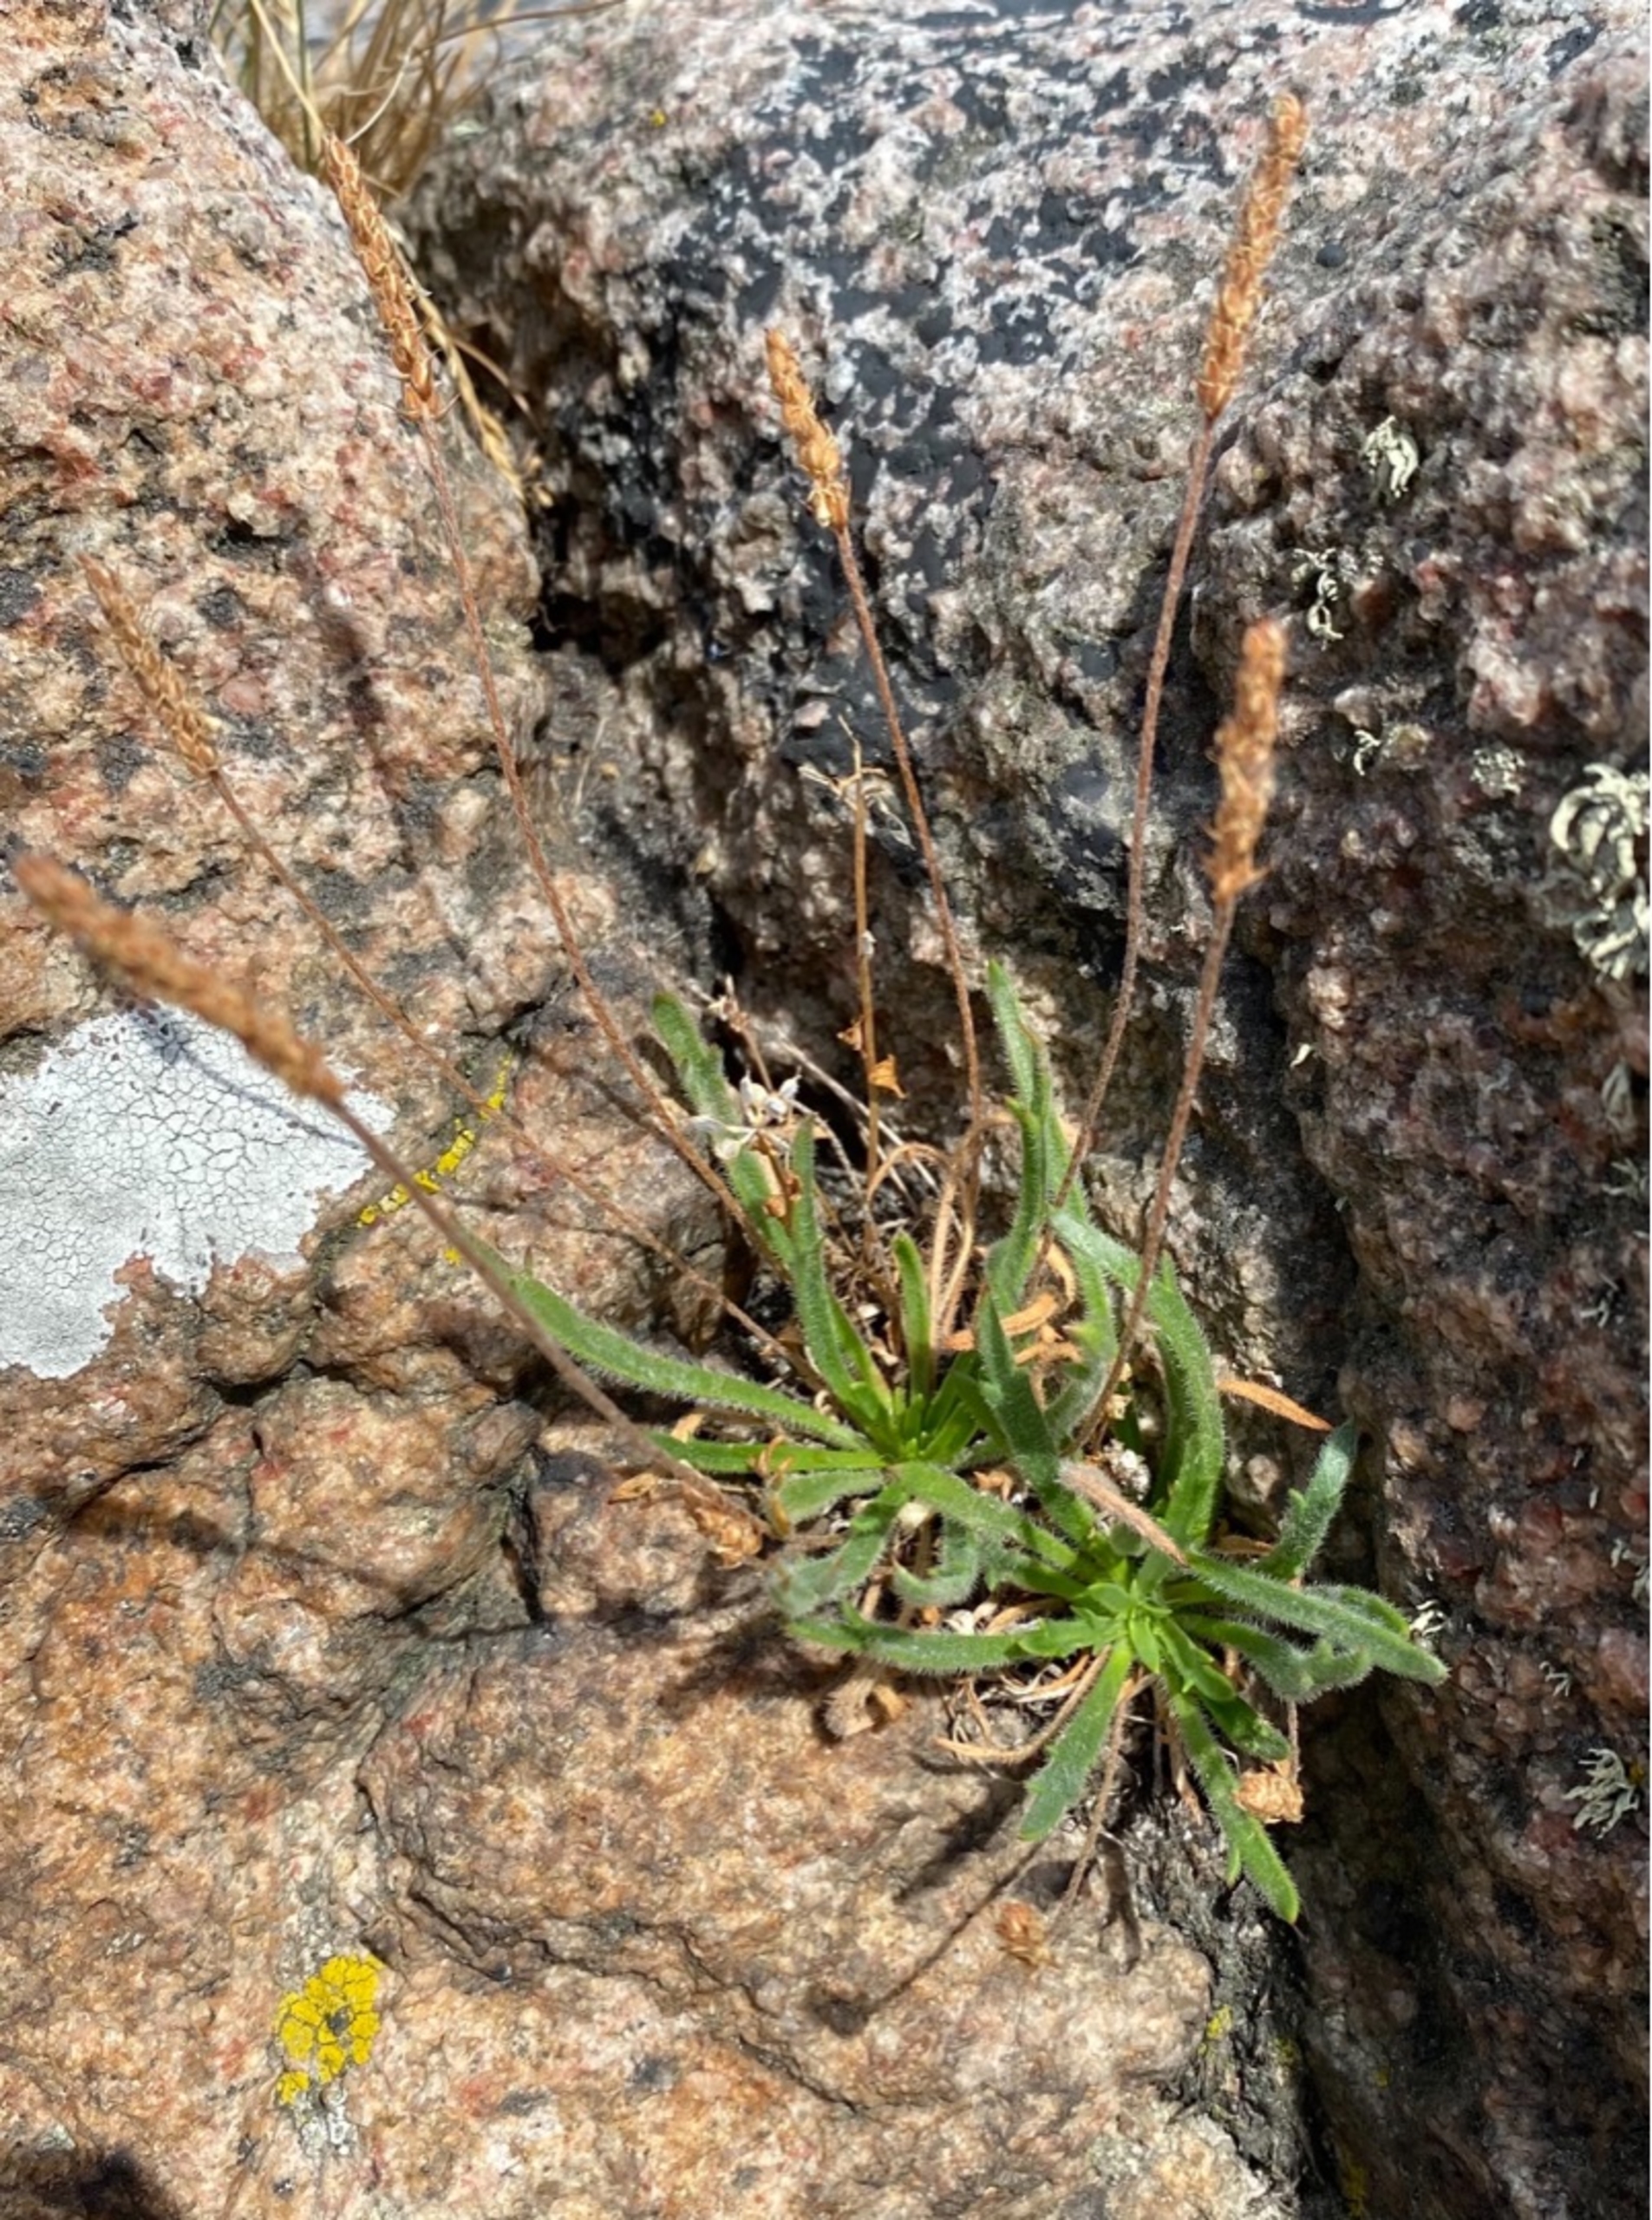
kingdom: Plantae
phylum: Tracheophyta
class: Magnoliopsida
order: Lamiales
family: Plantaginaceae
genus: Plantago
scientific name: Plantago coronopus
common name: Fliget vejbred
